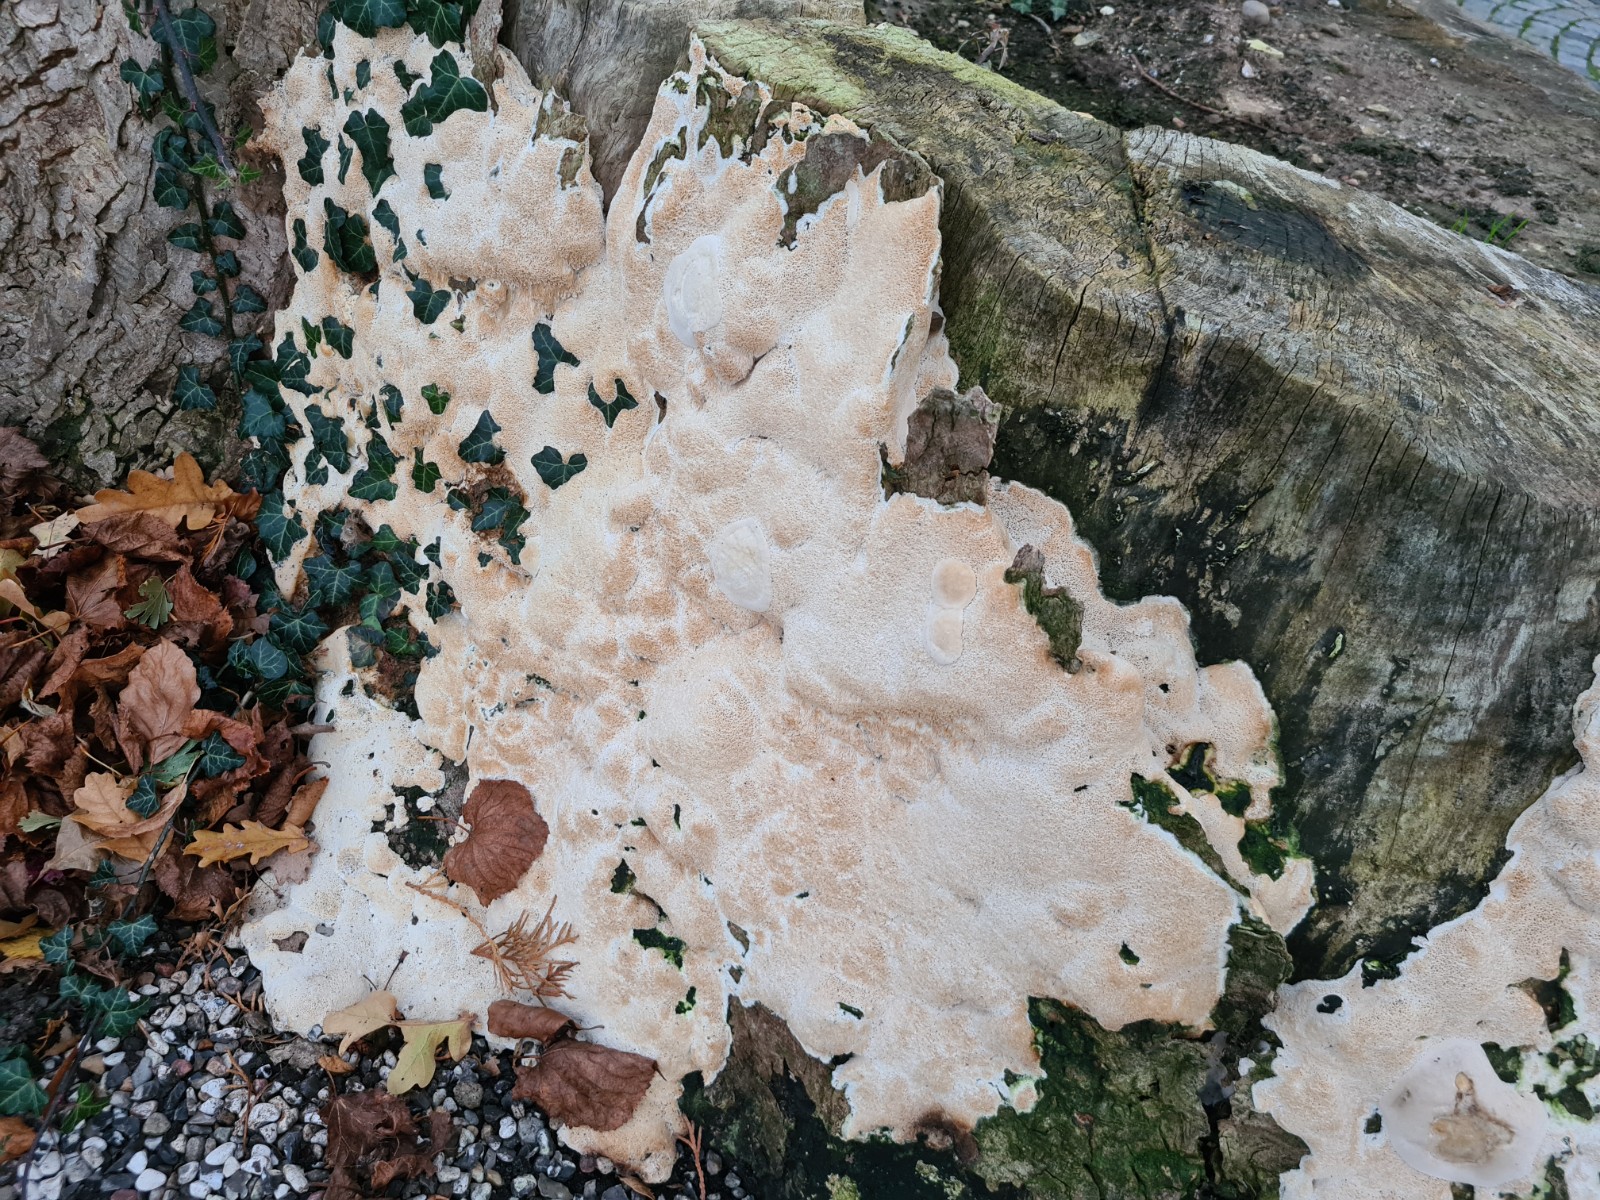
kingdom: Fungi
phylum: Basidiomycota
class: Agaricomycetes
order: Polyporales
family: Irpicaceae
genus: Irpex
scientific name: Irpex latemarginatus
